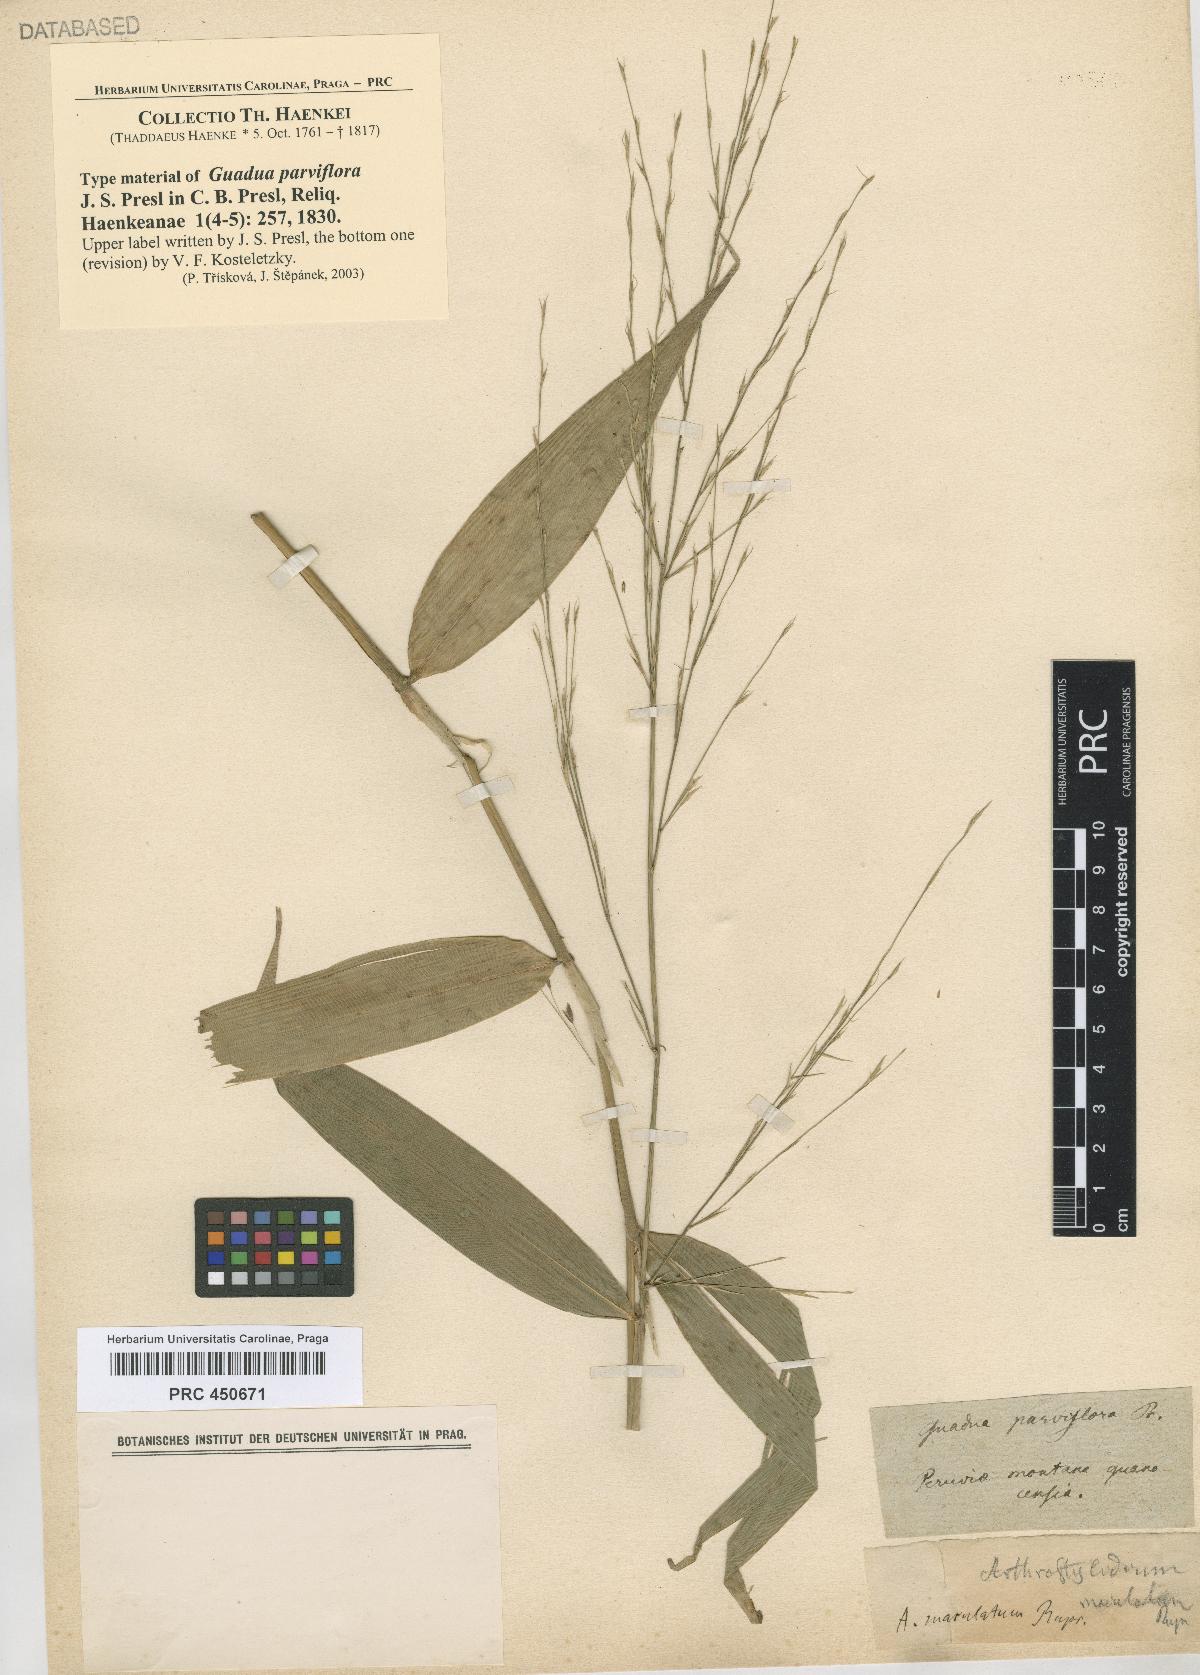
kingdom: Plantae
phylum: Tracheophyta
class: Liliopsida
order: Poales
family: Poaceae
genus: Aulonemia
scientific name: Aulonemia parviflora
